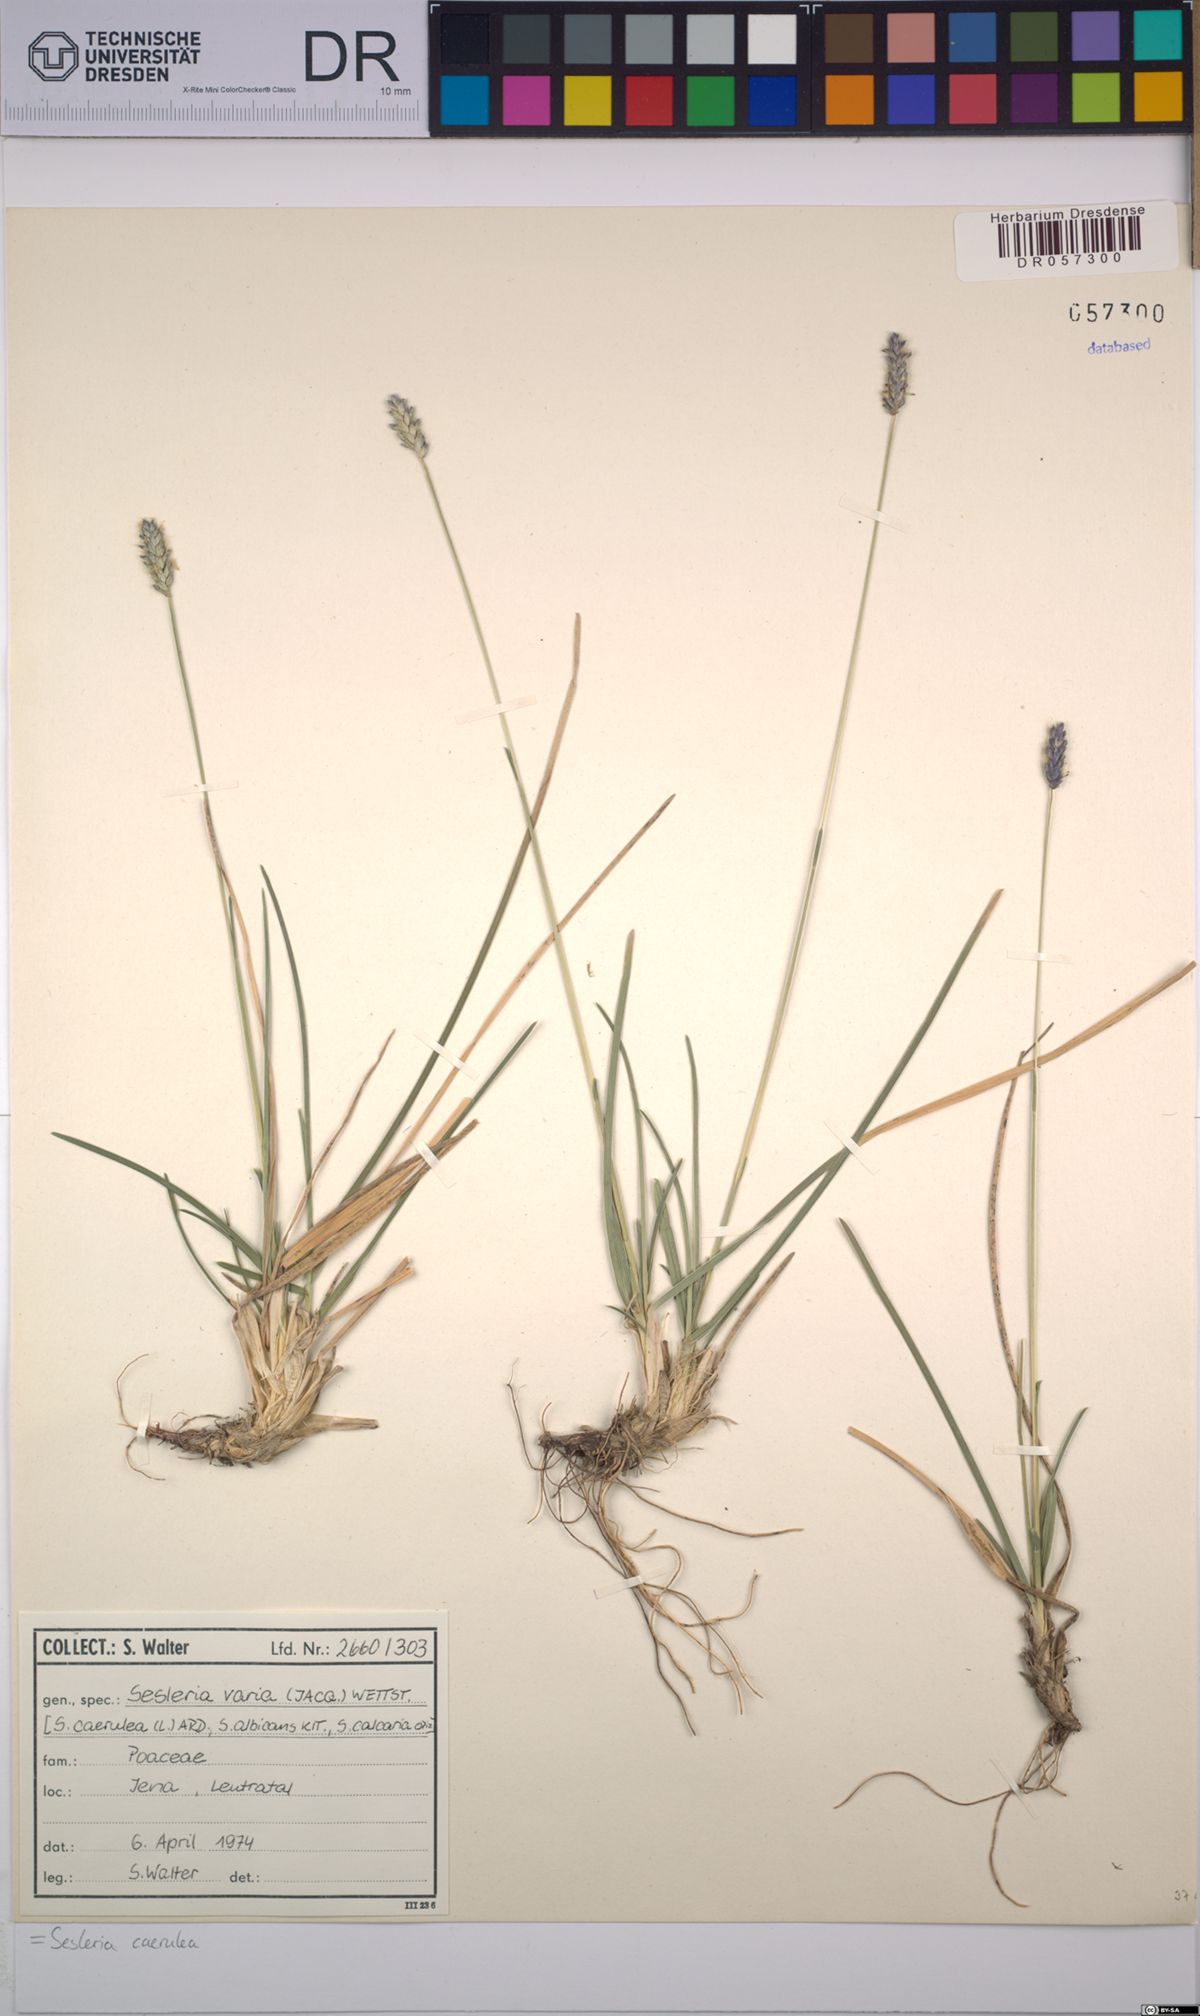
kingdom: Plantae
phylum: Tracheophyta
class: Liliopsida
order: Poales
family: Poaceae
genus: Sesleria
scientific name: Sesleria caerulea
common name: Blue moor-grass
